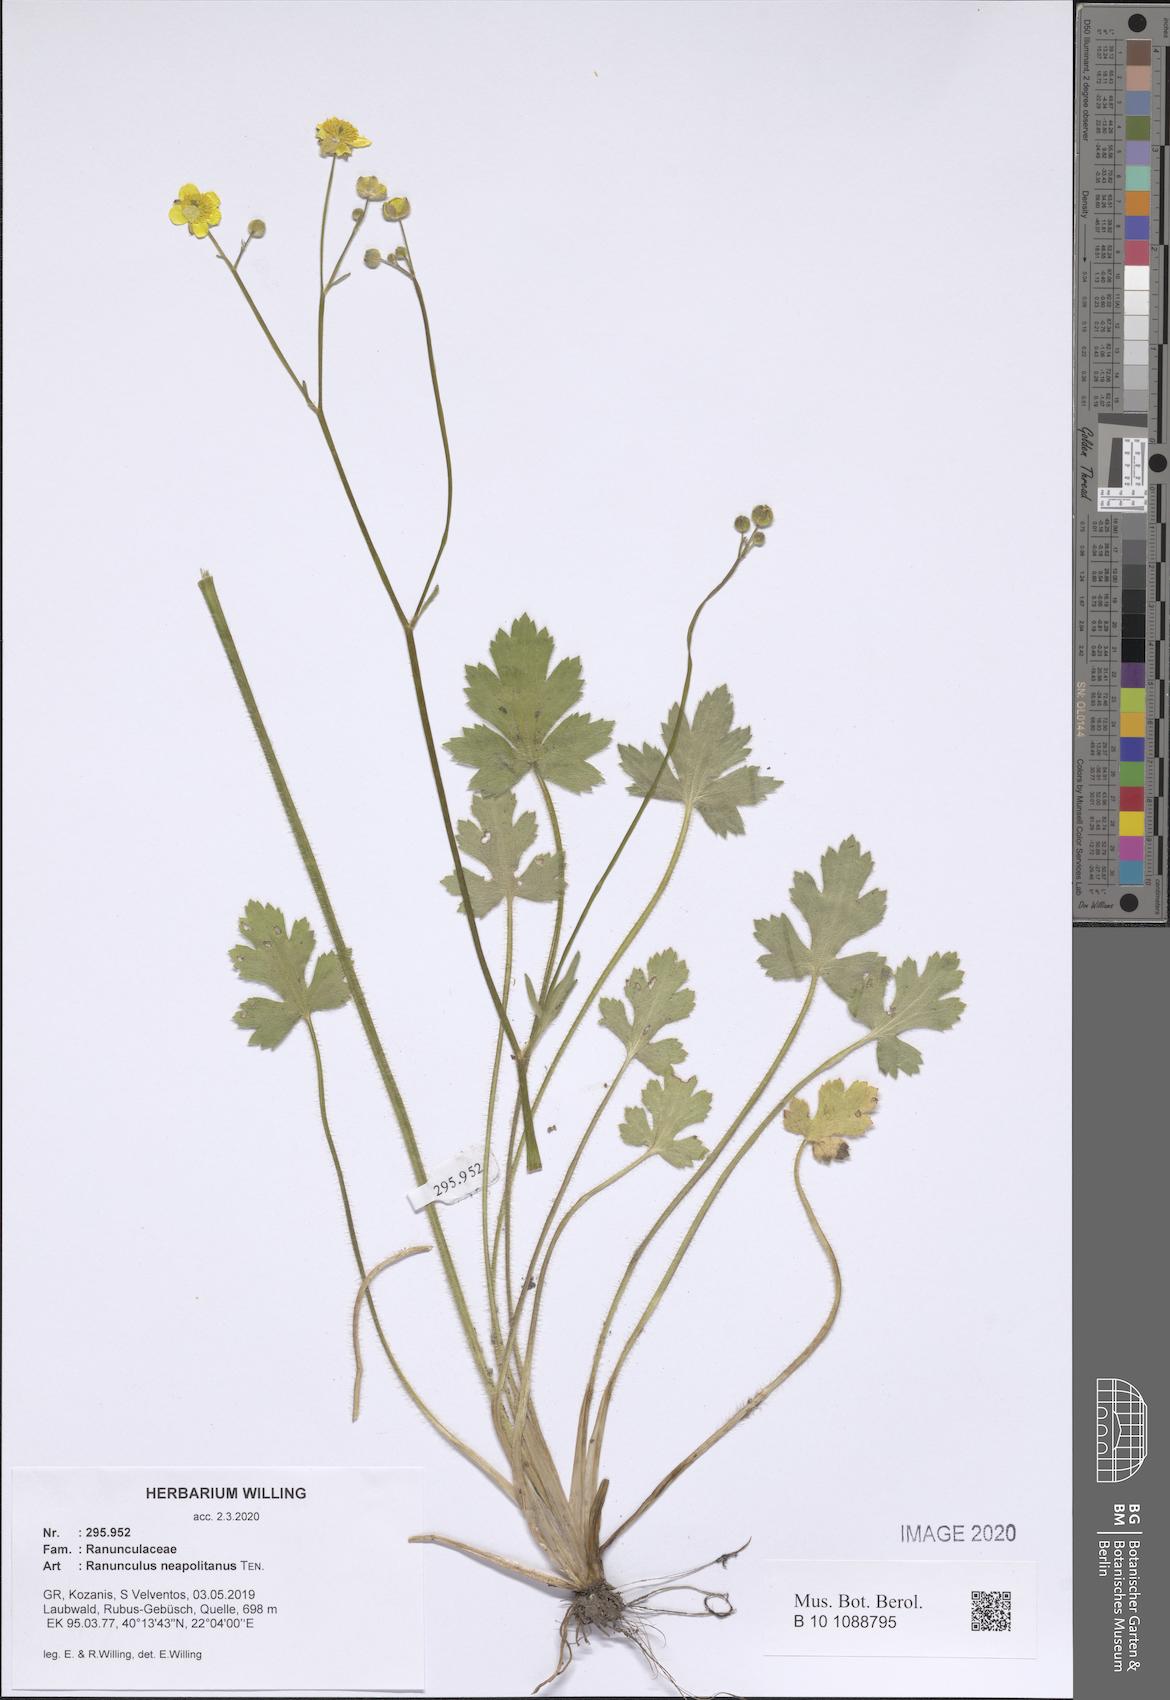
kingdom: Plantae
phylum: Tracheophyta
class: Magnoliopsida
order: Ranunculales
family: Ranunculaceae
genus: Ranunculus
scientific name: Ranunculus neapolitanus
